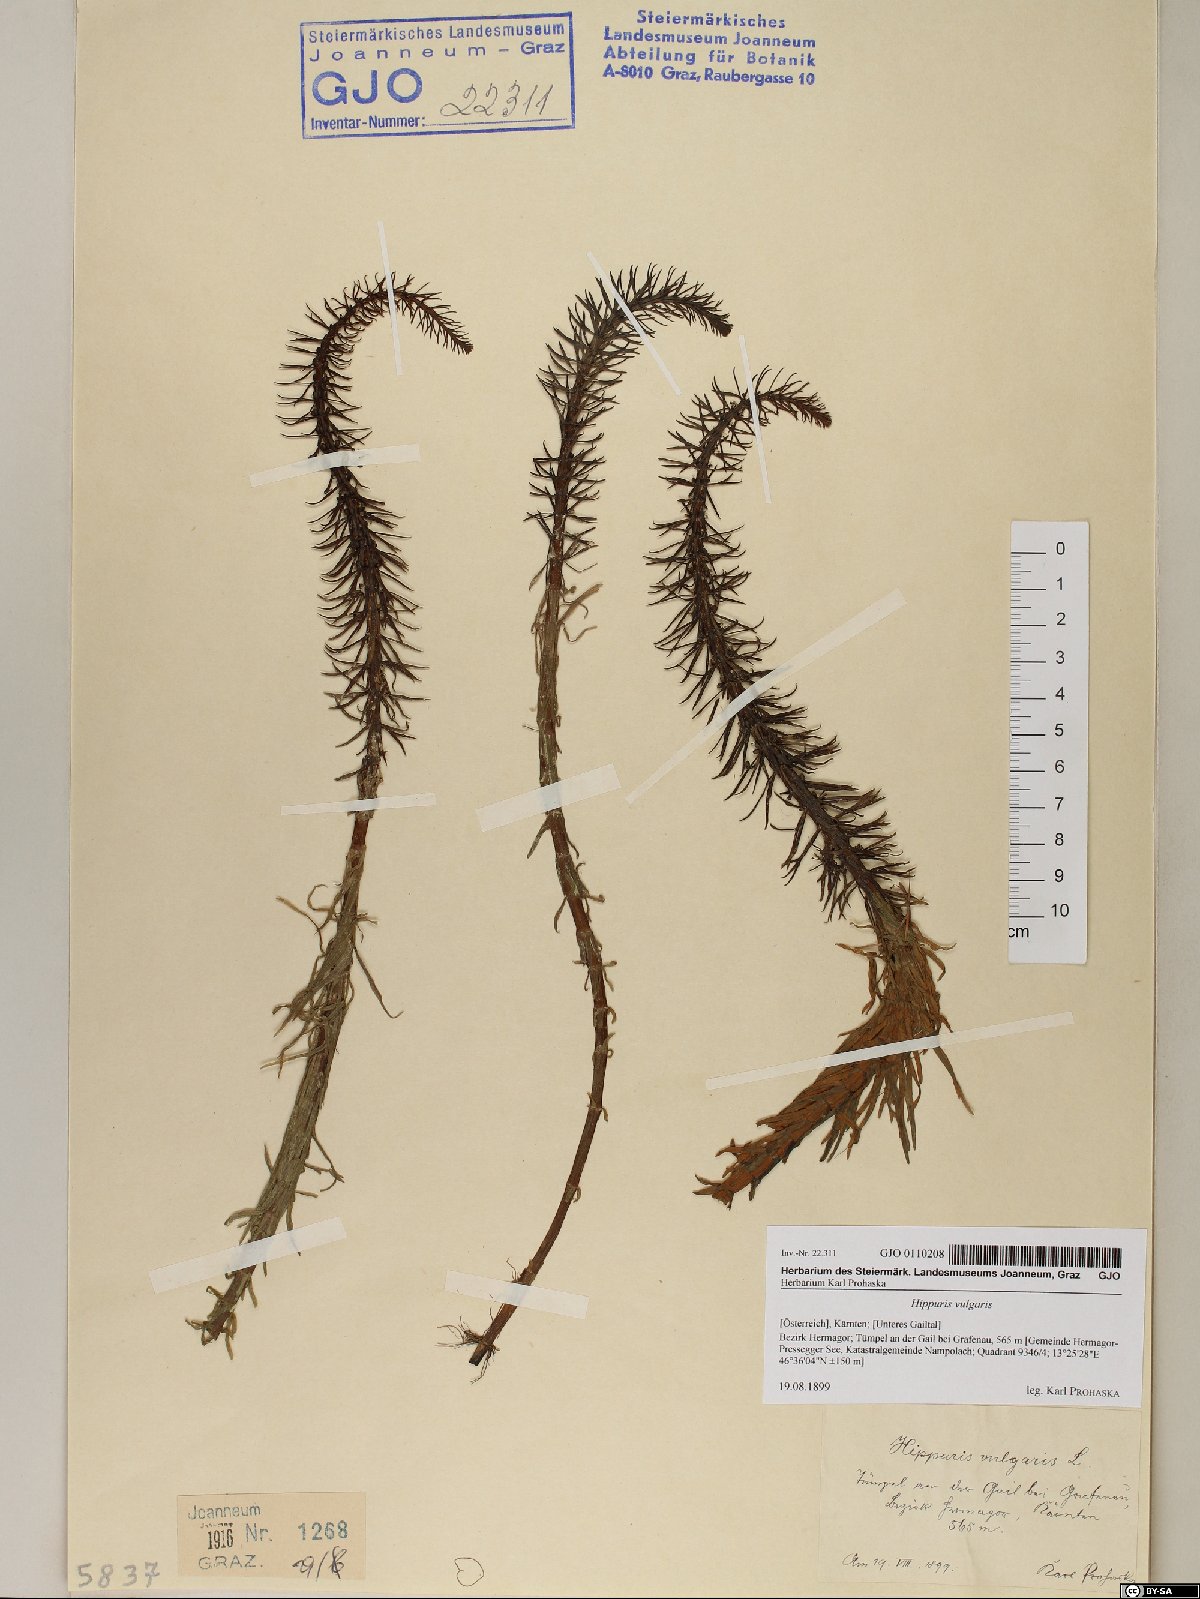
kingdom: Plantae
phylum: Tracheophyta
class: Magnoliopsida
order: Lamiales
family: Plantaginaceae
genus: Hippuris
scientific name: Hippuris vulgaris
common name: Mare's-tail
